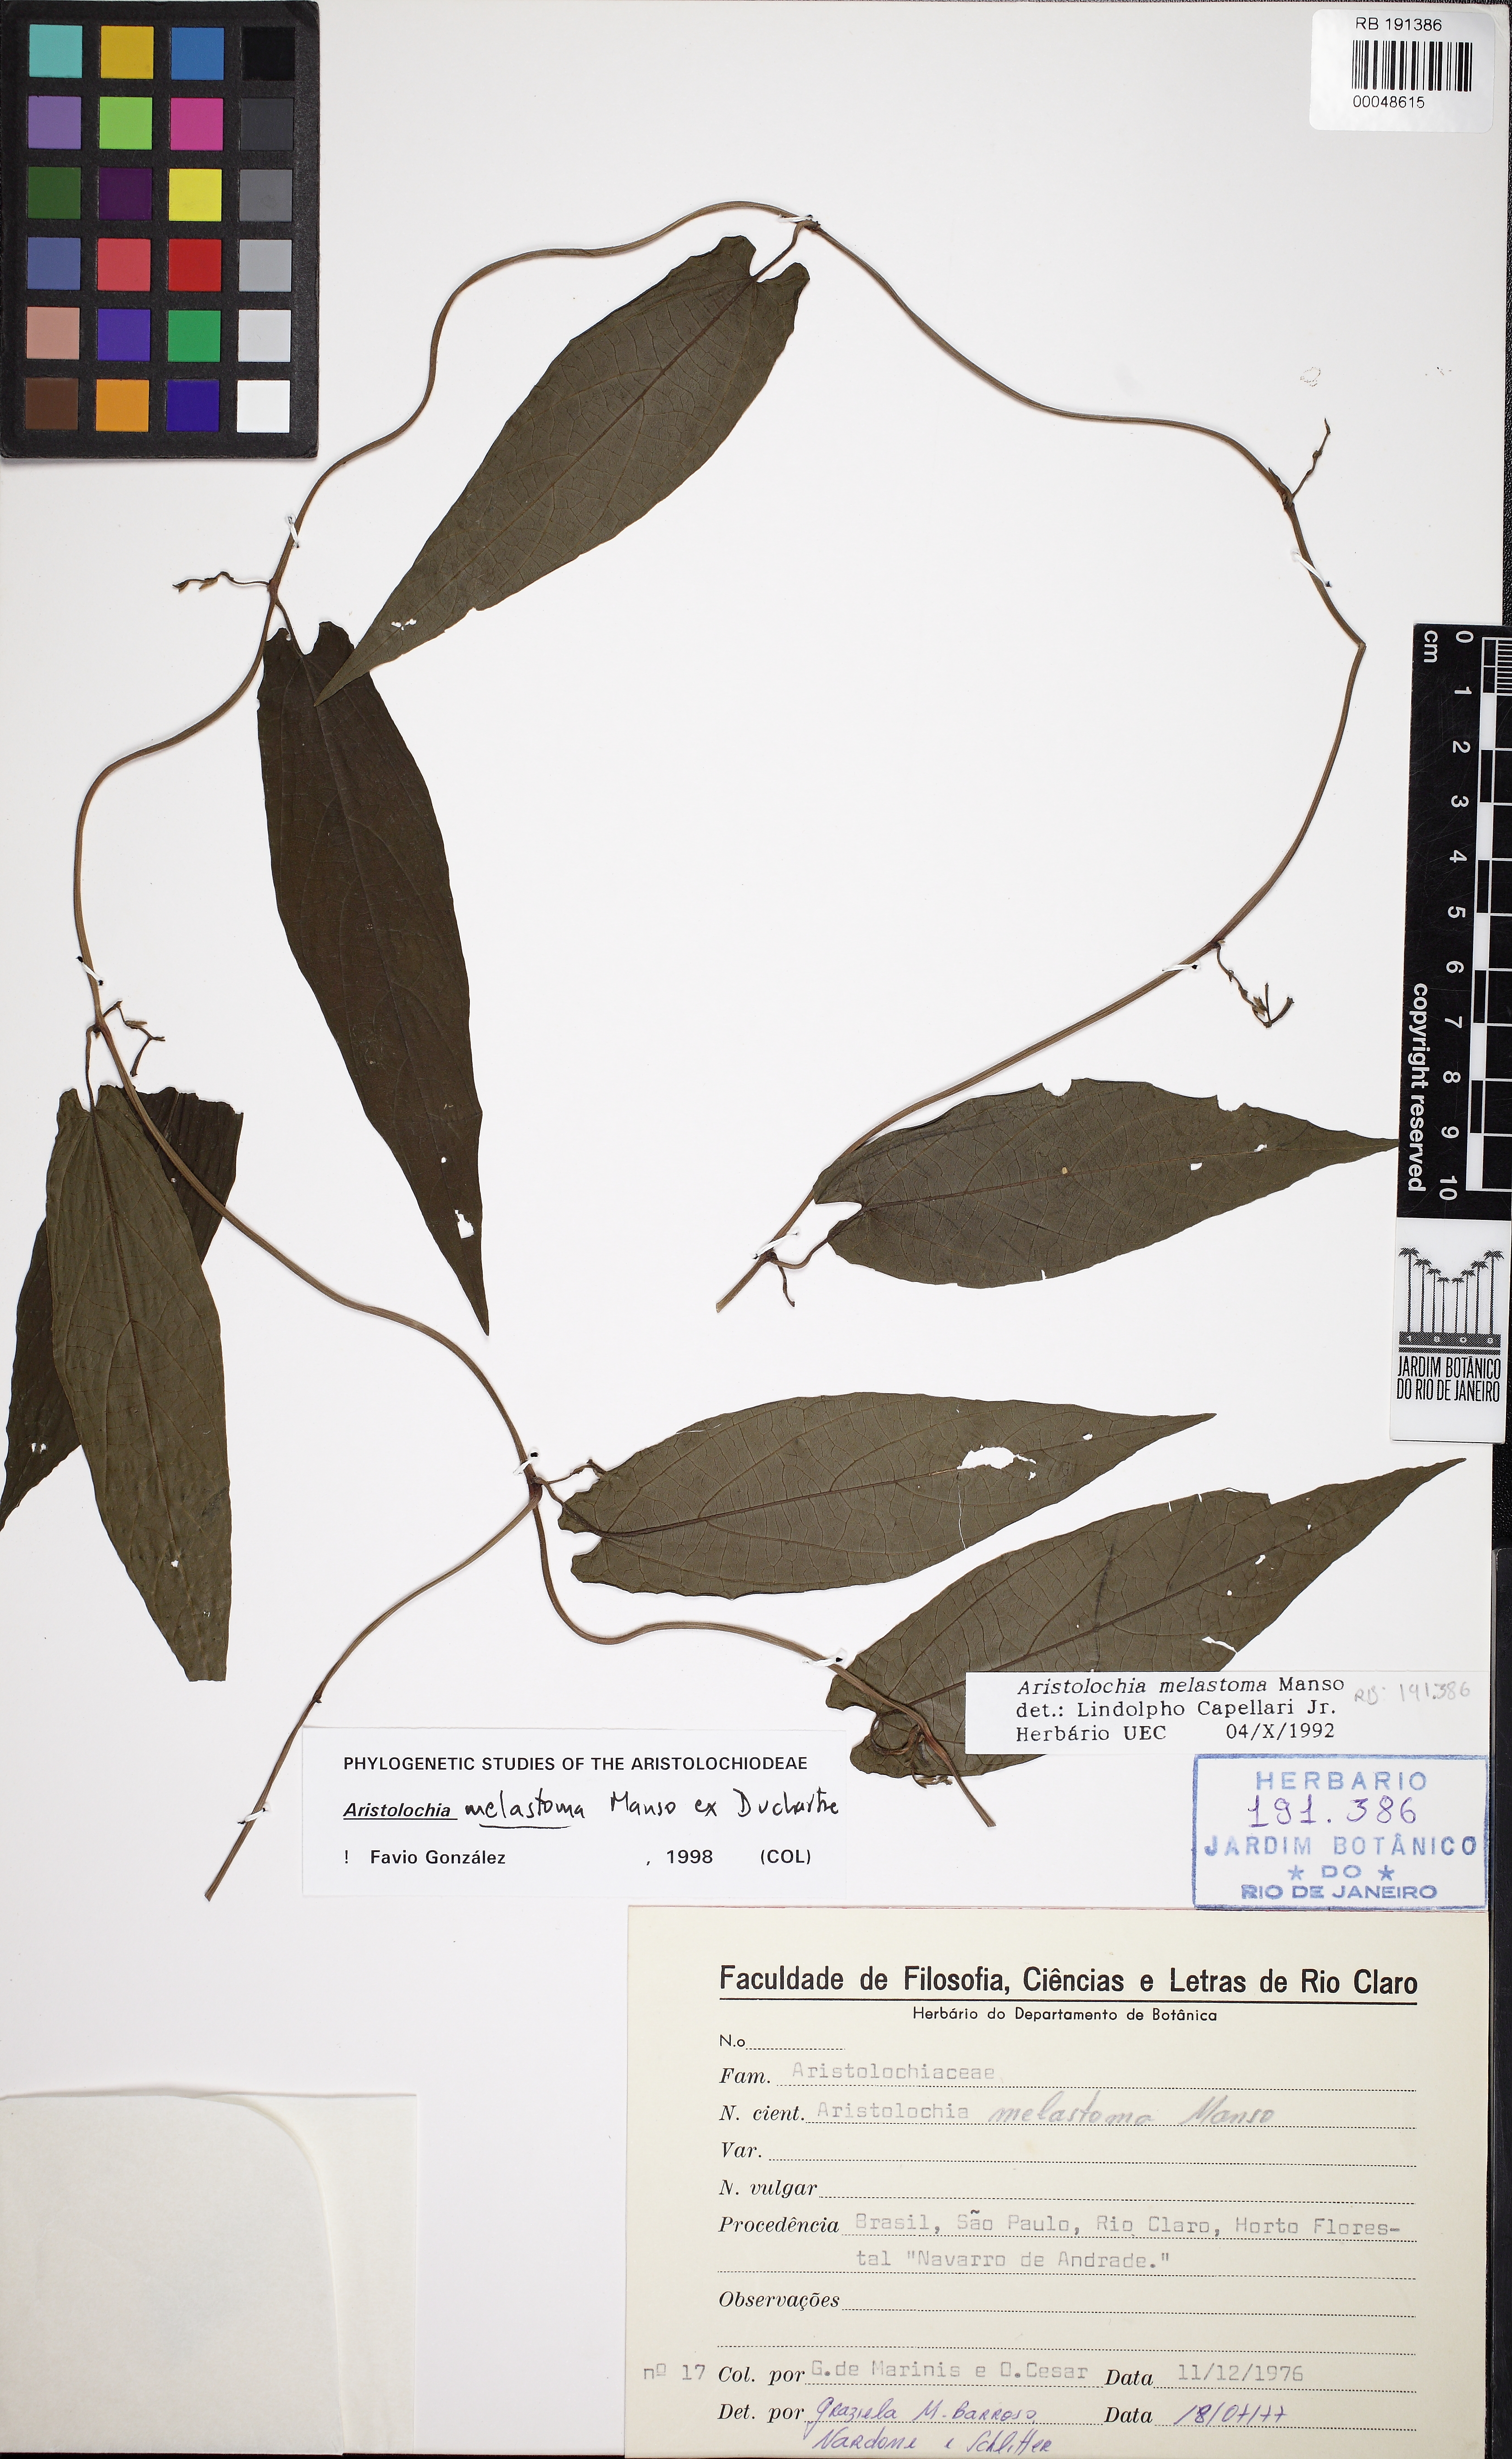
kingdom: Plantae
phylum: Tracheophyta
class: Magnoliopsida
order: Piperales
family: Aristolochiaceae
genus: Aristolochia
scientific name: Aristolochia melastoma
